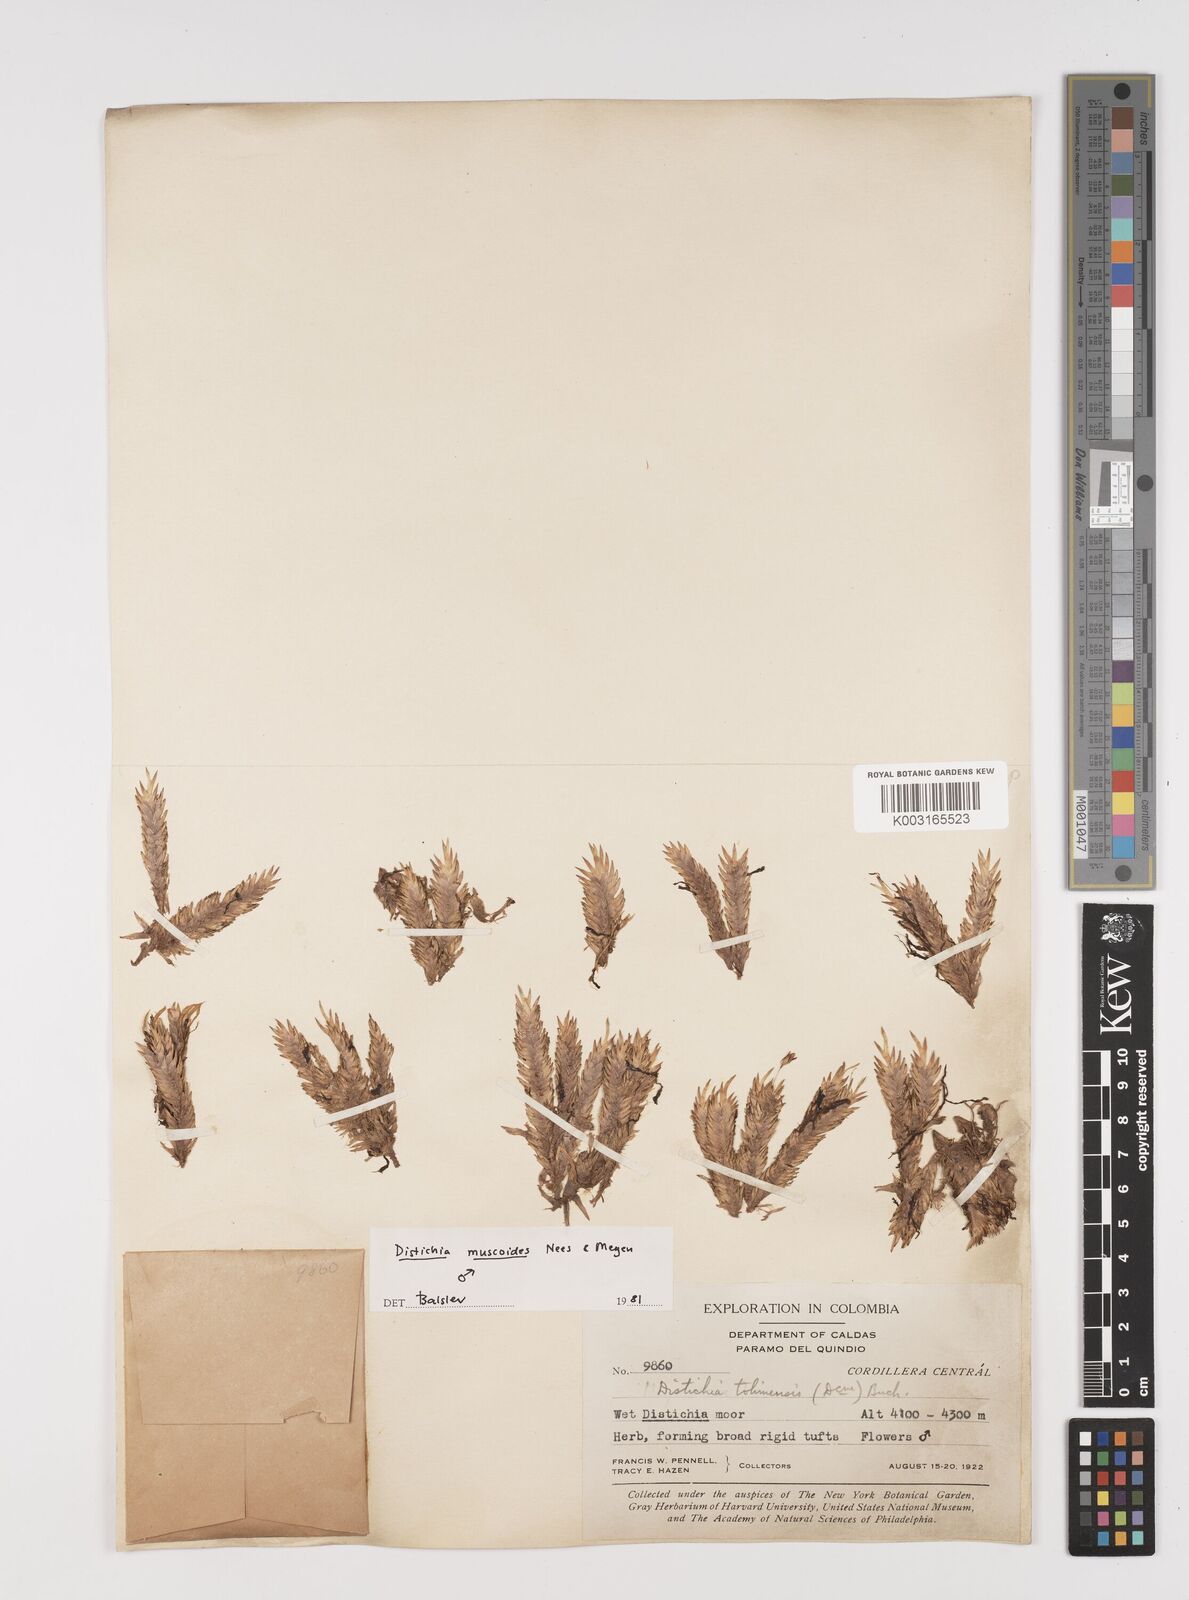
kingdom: Plantae
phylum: Tracheophyta
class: Liliopsida
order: Poales
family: Juncaceae
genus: Distichia
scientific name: Distichia muscoides
